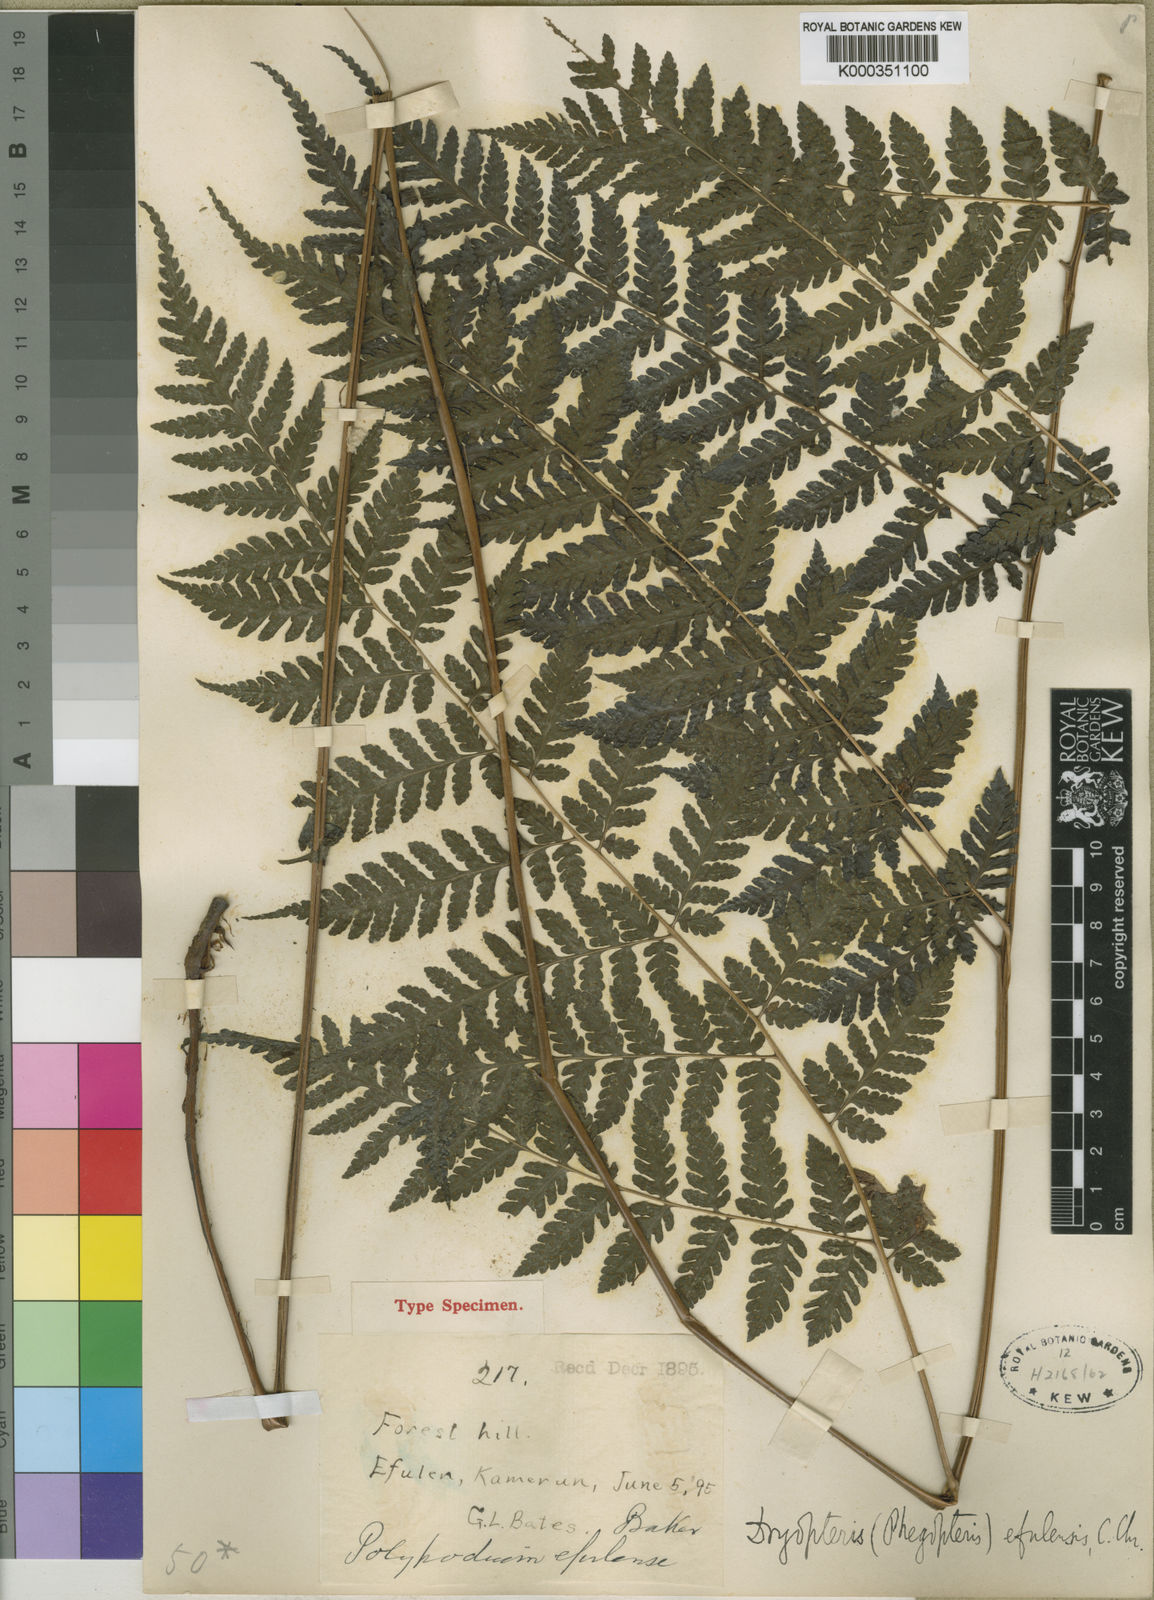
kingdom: Plantae
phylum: Tracheophyta
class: Polypodiopsida
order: Polypodiales
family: Dryopteridaceae
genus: Parapolystichum
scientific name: Parapolystichum currorii
